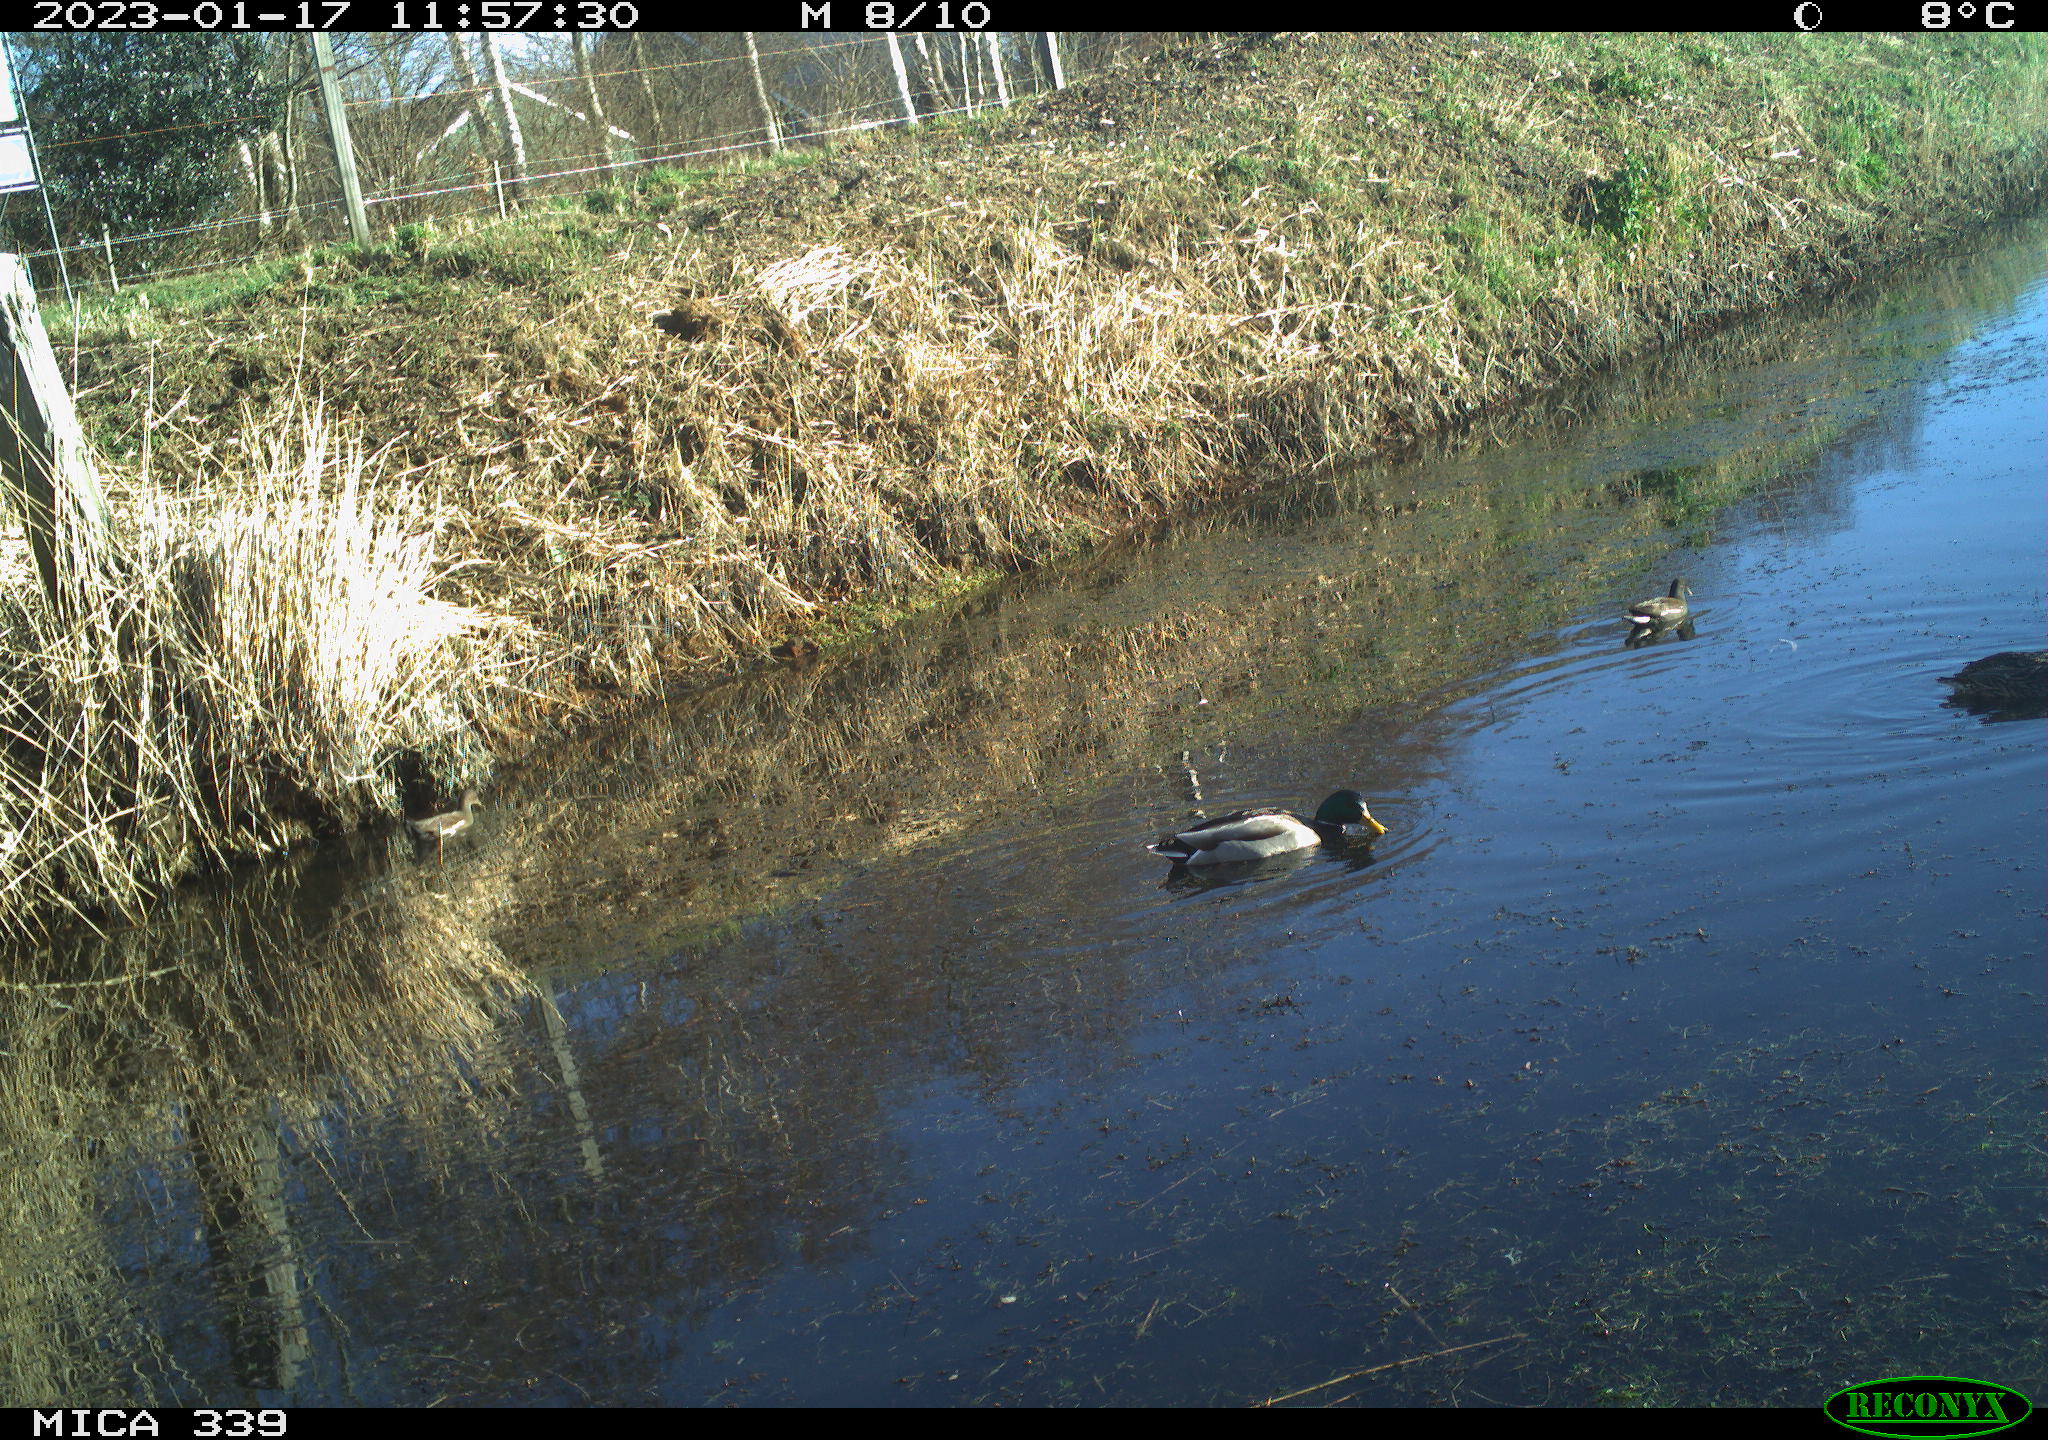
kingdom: Animalia
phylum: Chordata
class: Aves
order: Anseriformes
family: Anatidae
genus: Anas
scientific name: Anas
